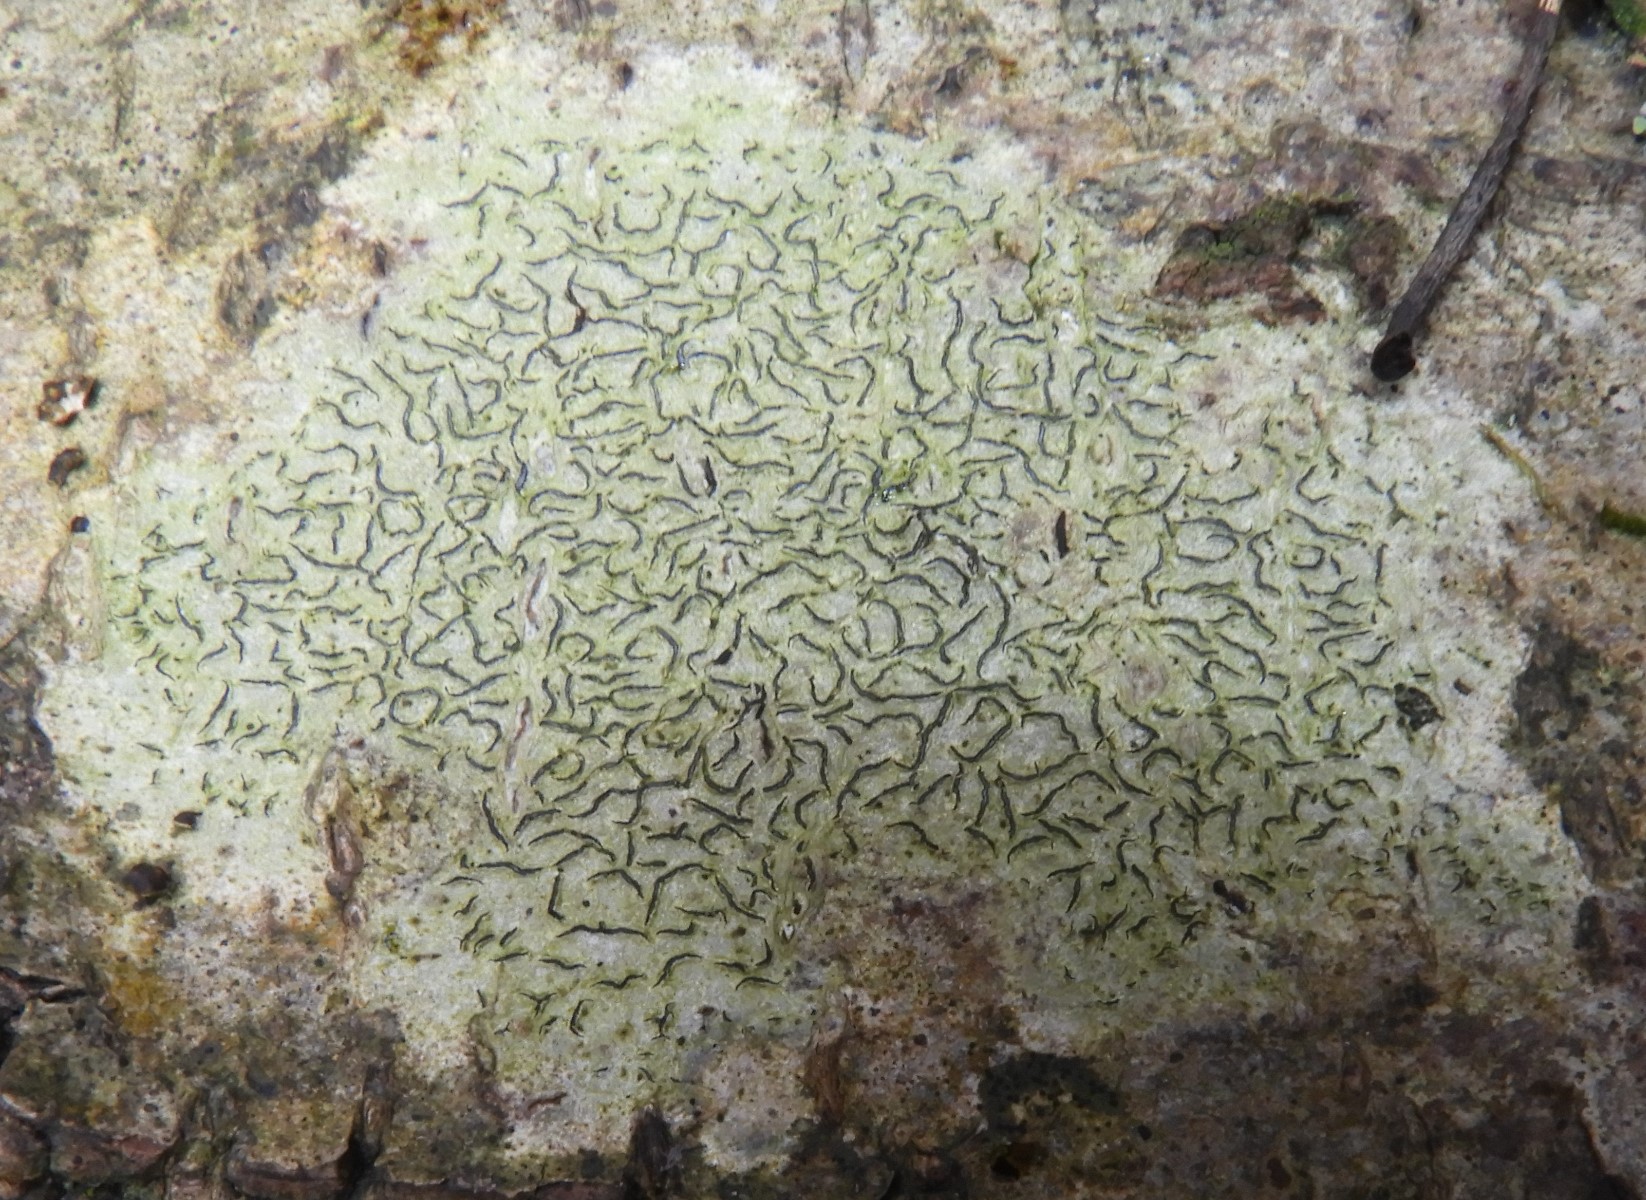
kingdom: Fungi
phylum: Ascomycota
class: Lecanoromycetes
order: Ostropales
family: Graphidaceae
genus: Graphis
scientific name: Graphis scripta
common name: almindelig skriftlav
